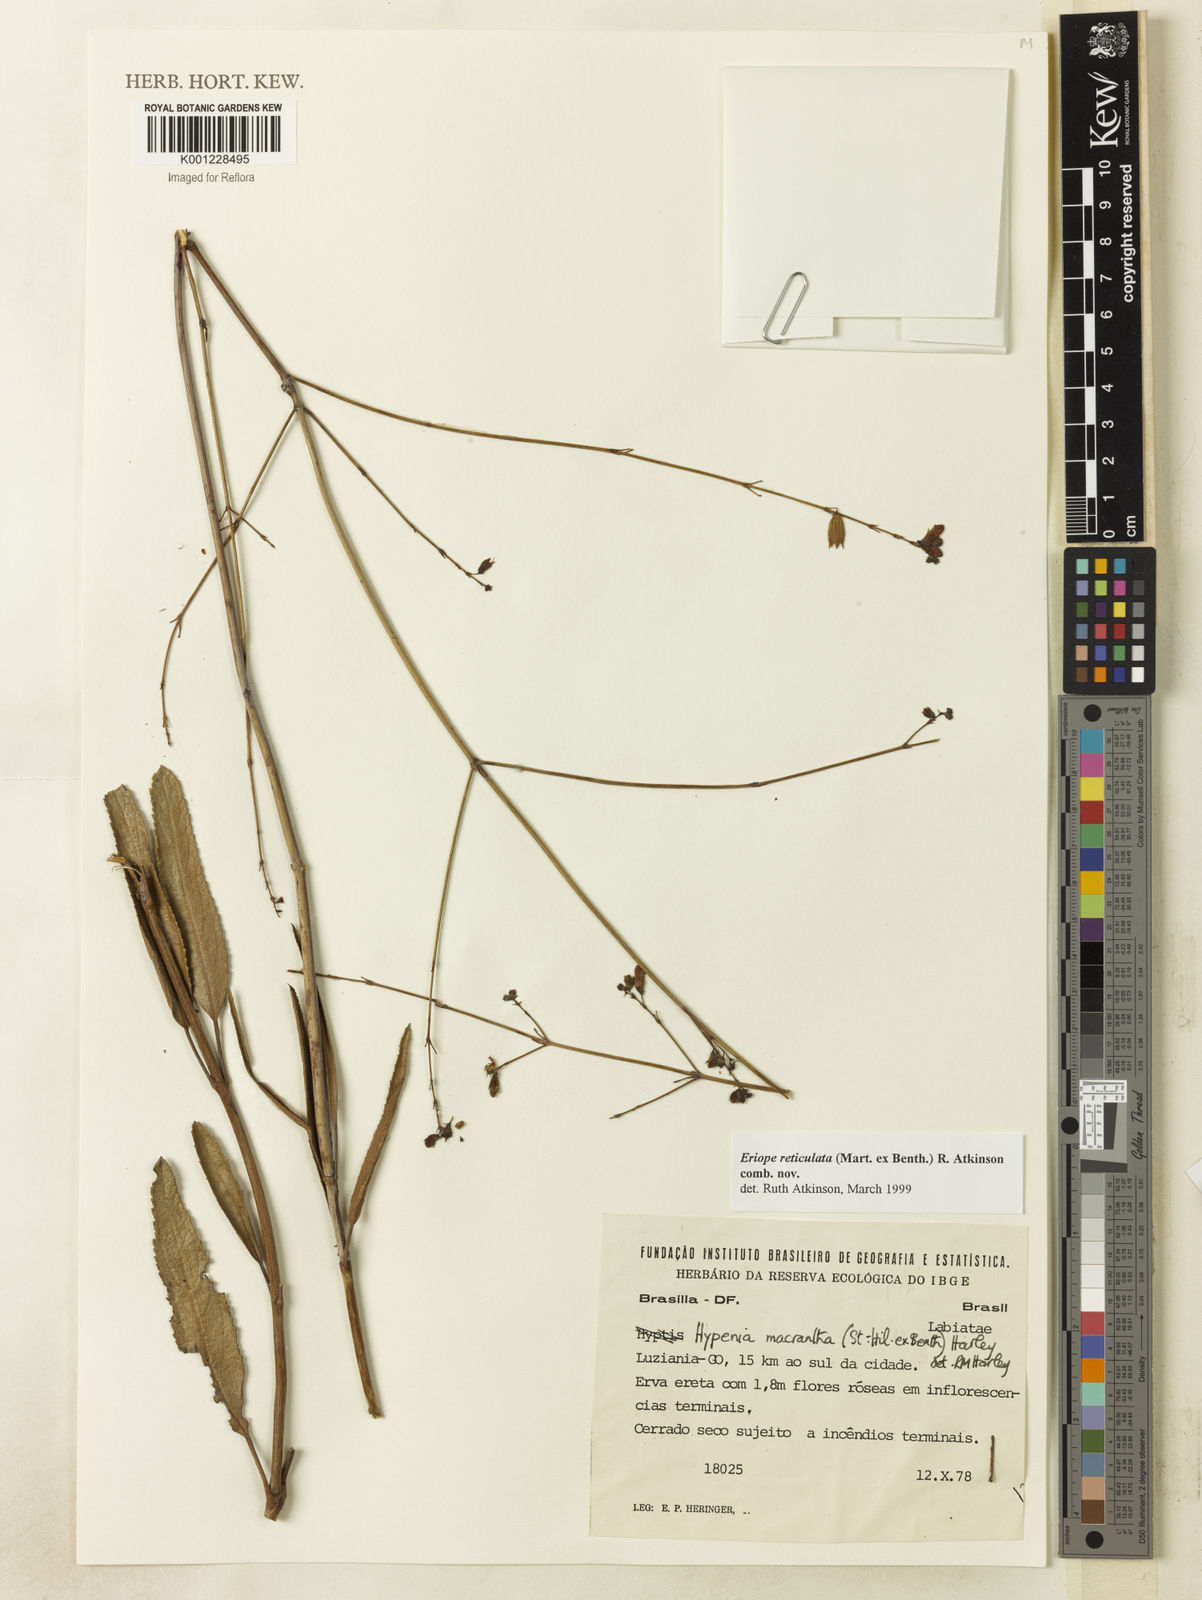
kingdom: Plantae
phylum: Tracheophyta
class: Magnoliopsida
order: Lamiales
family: Lamiaceae
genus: Hypenia
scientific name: Hypenia reticulata
